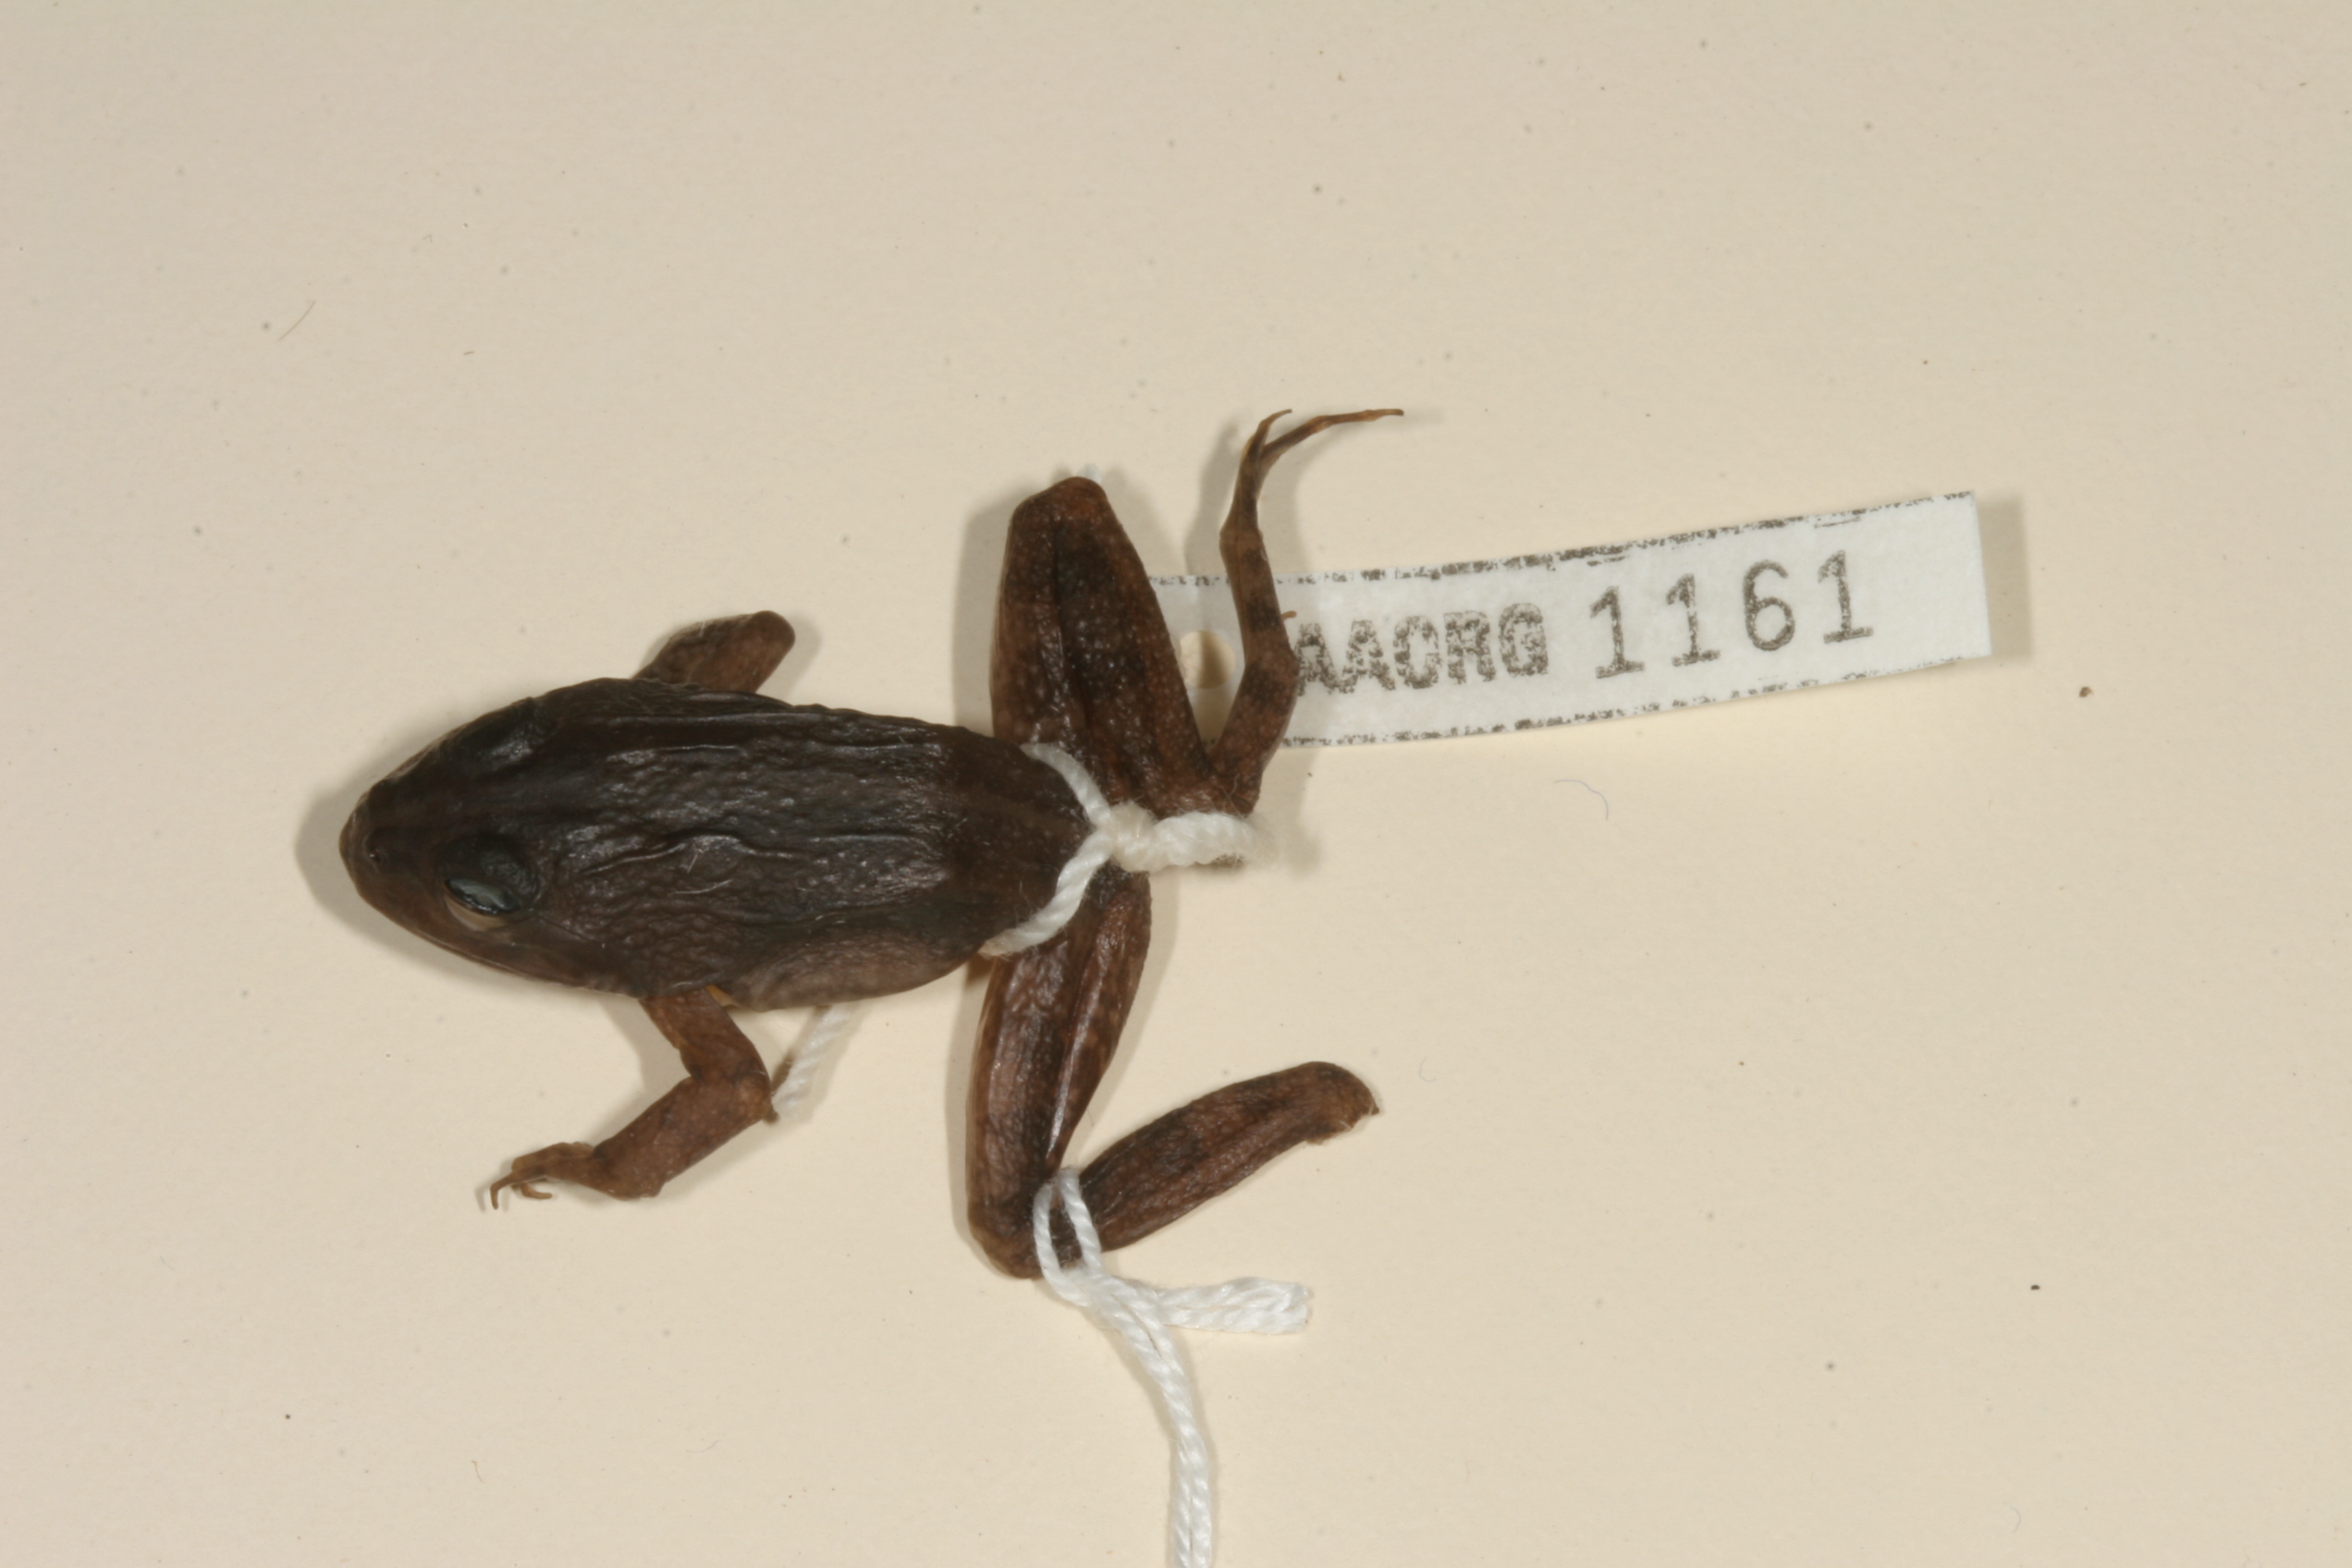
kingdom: Animalia
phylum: Chordata
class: Amphibia
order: Anura
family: Pyxicephalidae
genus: Amietia
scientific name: Amietia fuscigula
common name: Cape rana
